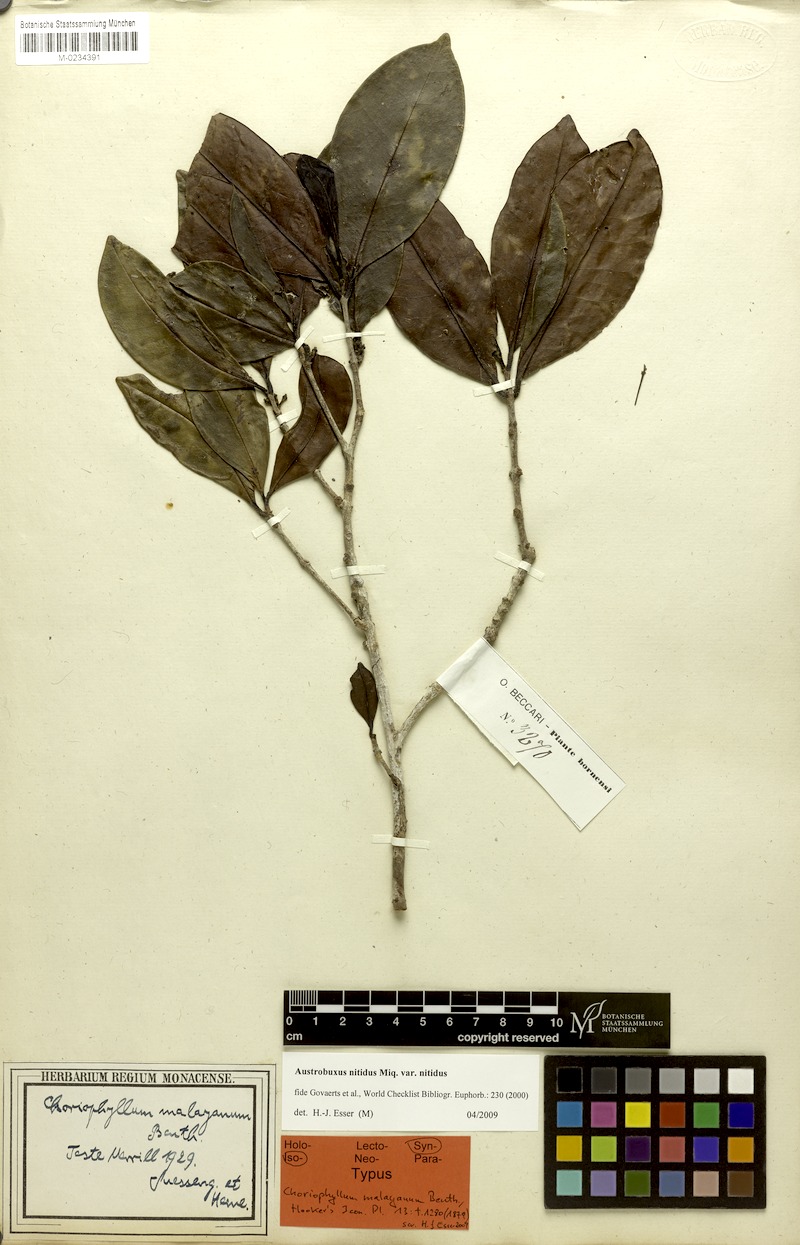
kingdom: Plantae
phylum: Tracheophyta
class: Magnoliopsida
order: Malpighiales
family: Picrodendraceae
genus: Austrobuxus
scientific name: Austrobuxus nitidus
